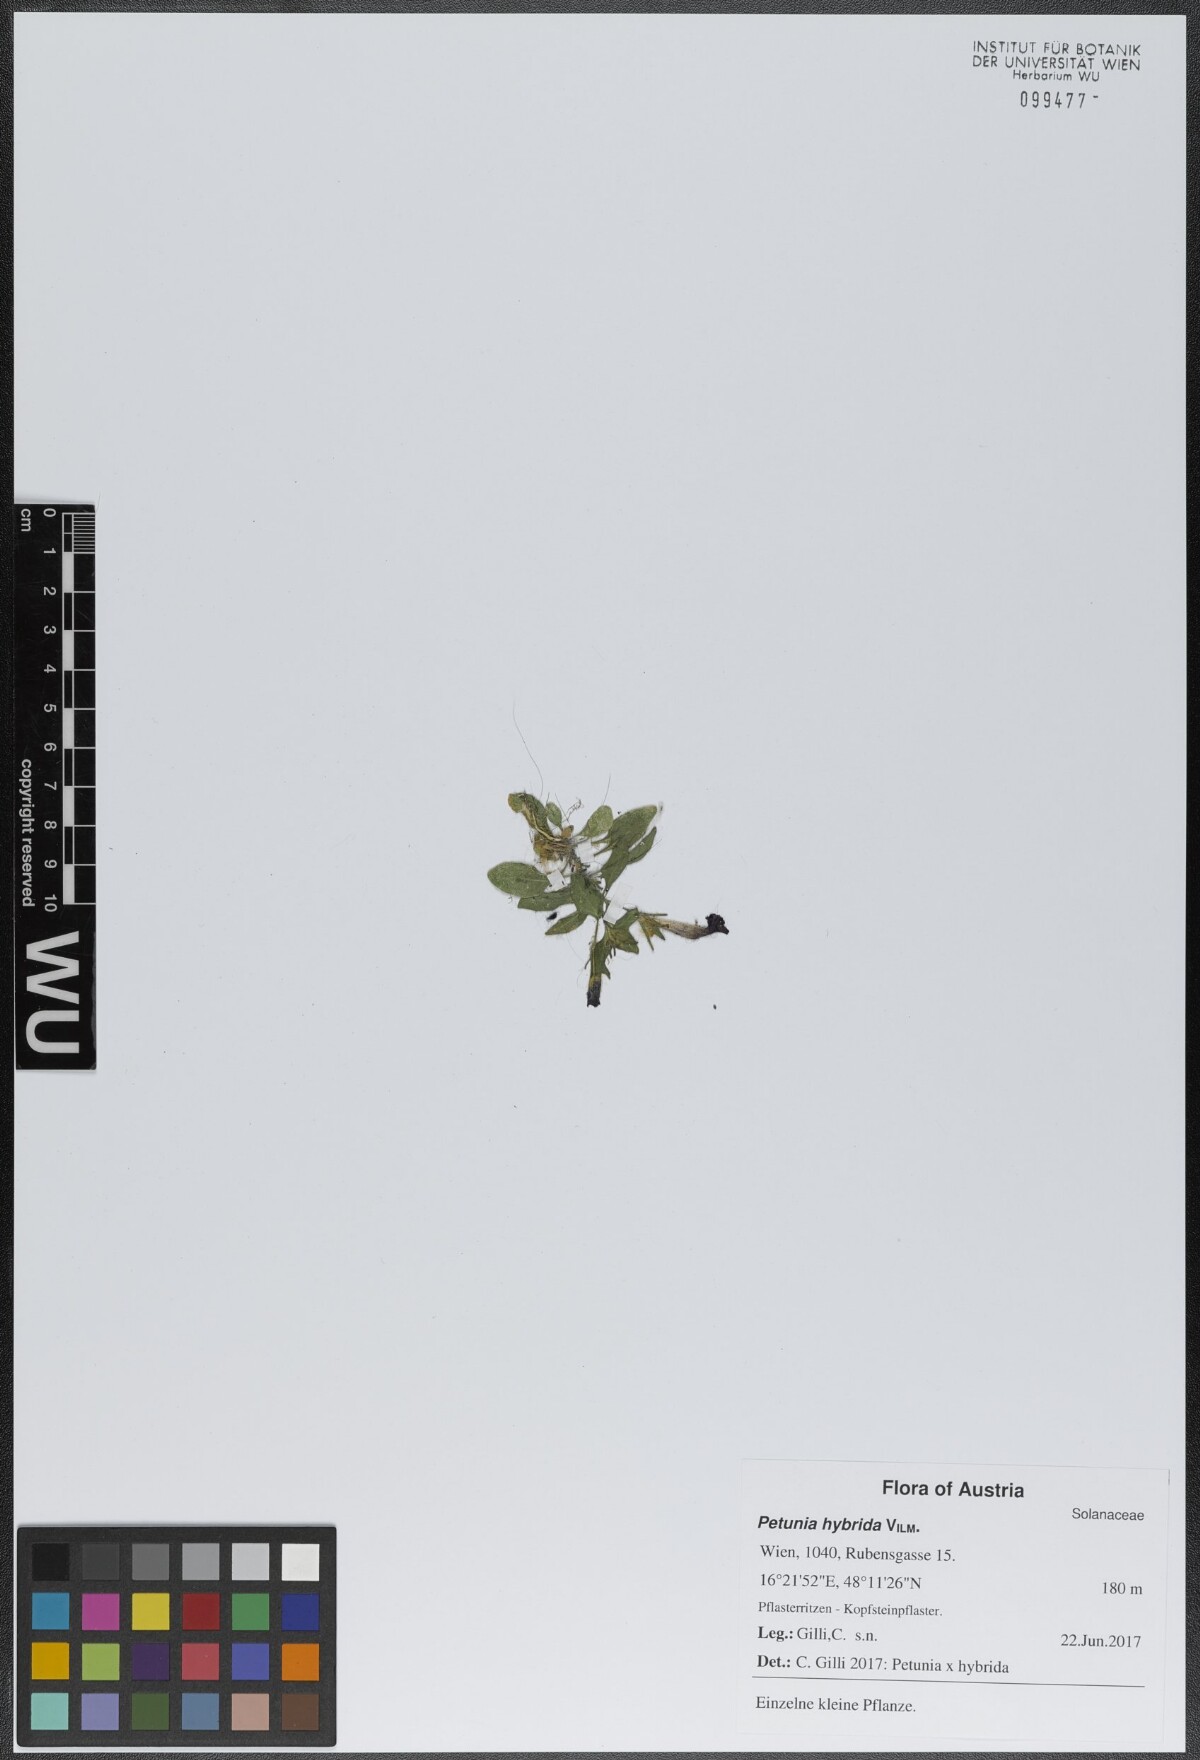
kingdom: Plantae
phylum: Tracheophyta
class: Magnoliopsida
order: Solanales
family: Solanaceae
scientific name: Solanaceae
